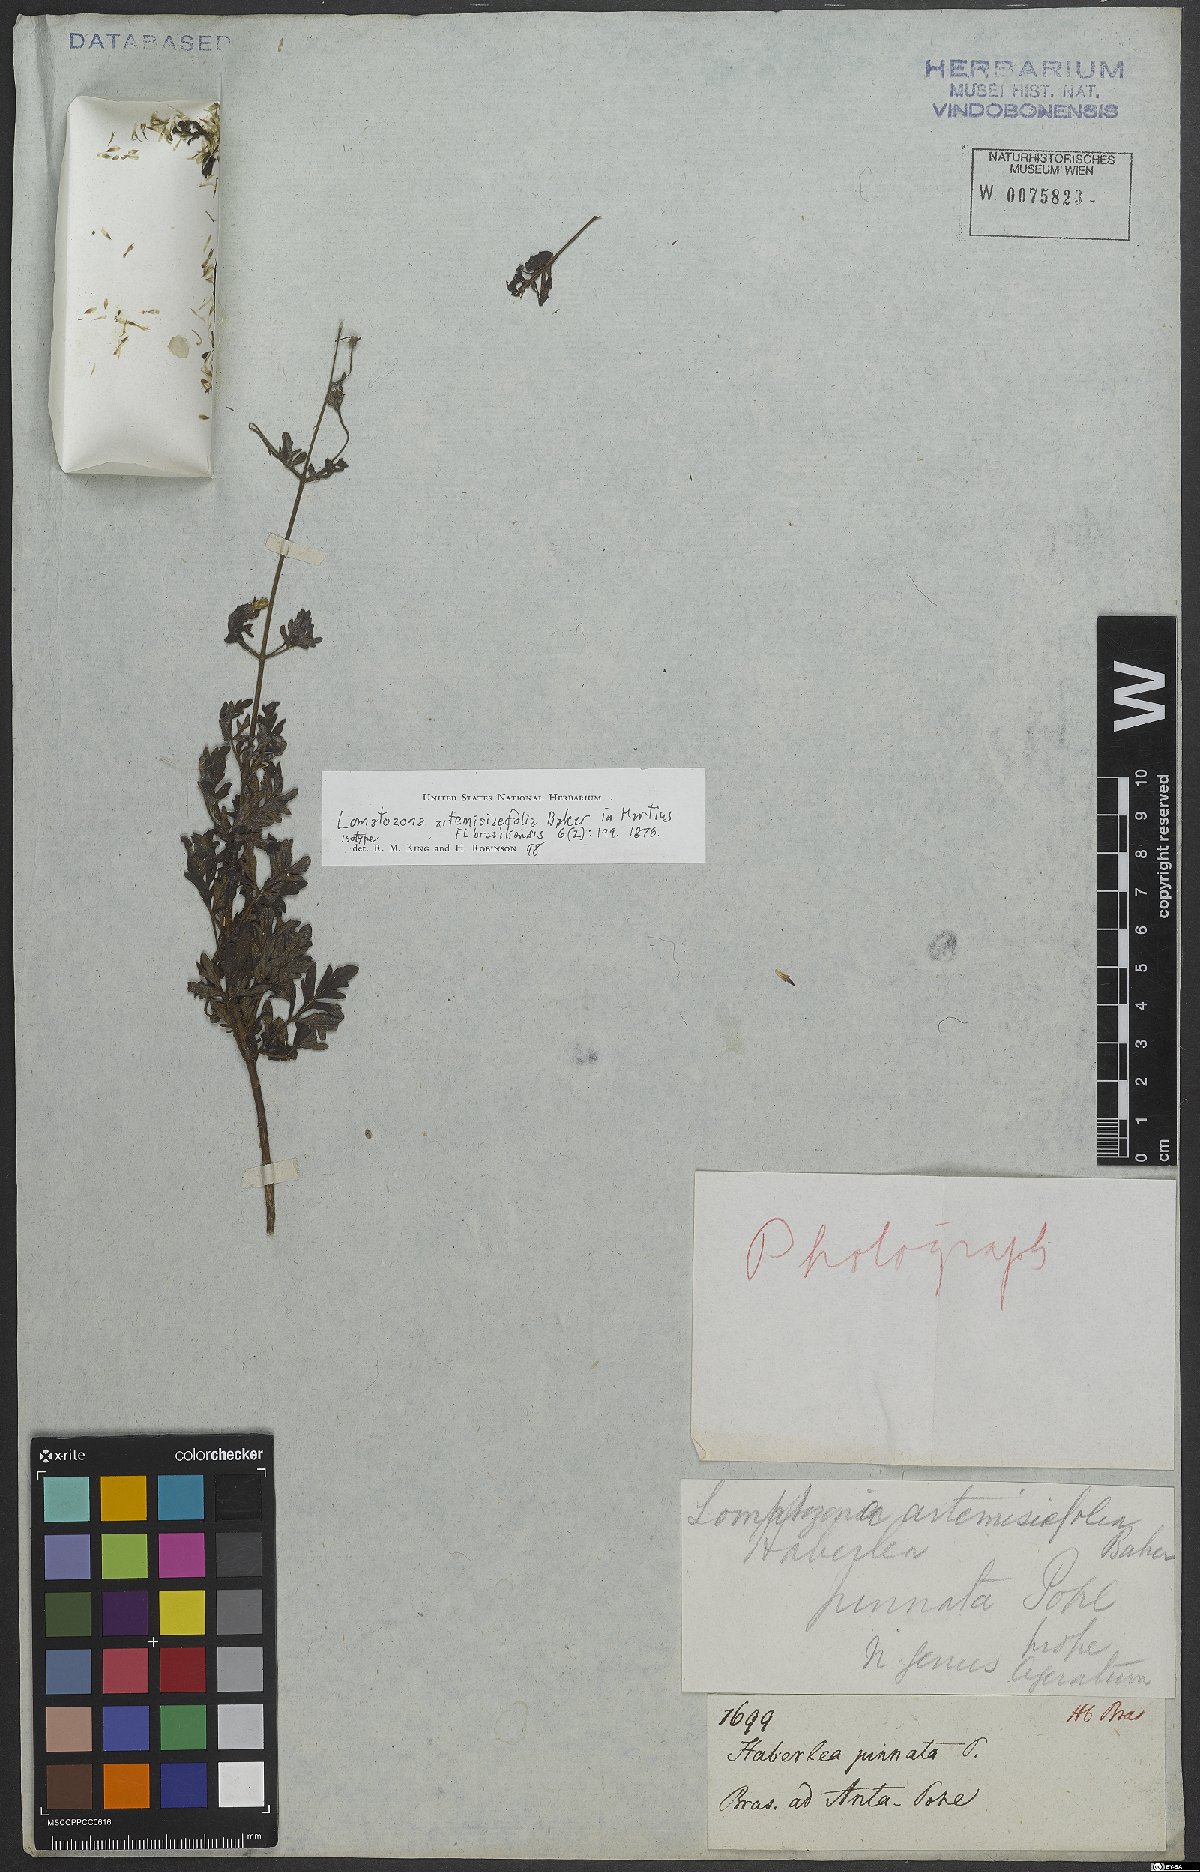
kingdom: Plantae
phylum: Tracheophyta
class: Magnoliopsida
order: Asterales
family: Asteraceae
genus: Lomatozona
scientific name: Lomatozona artemisiifolia
